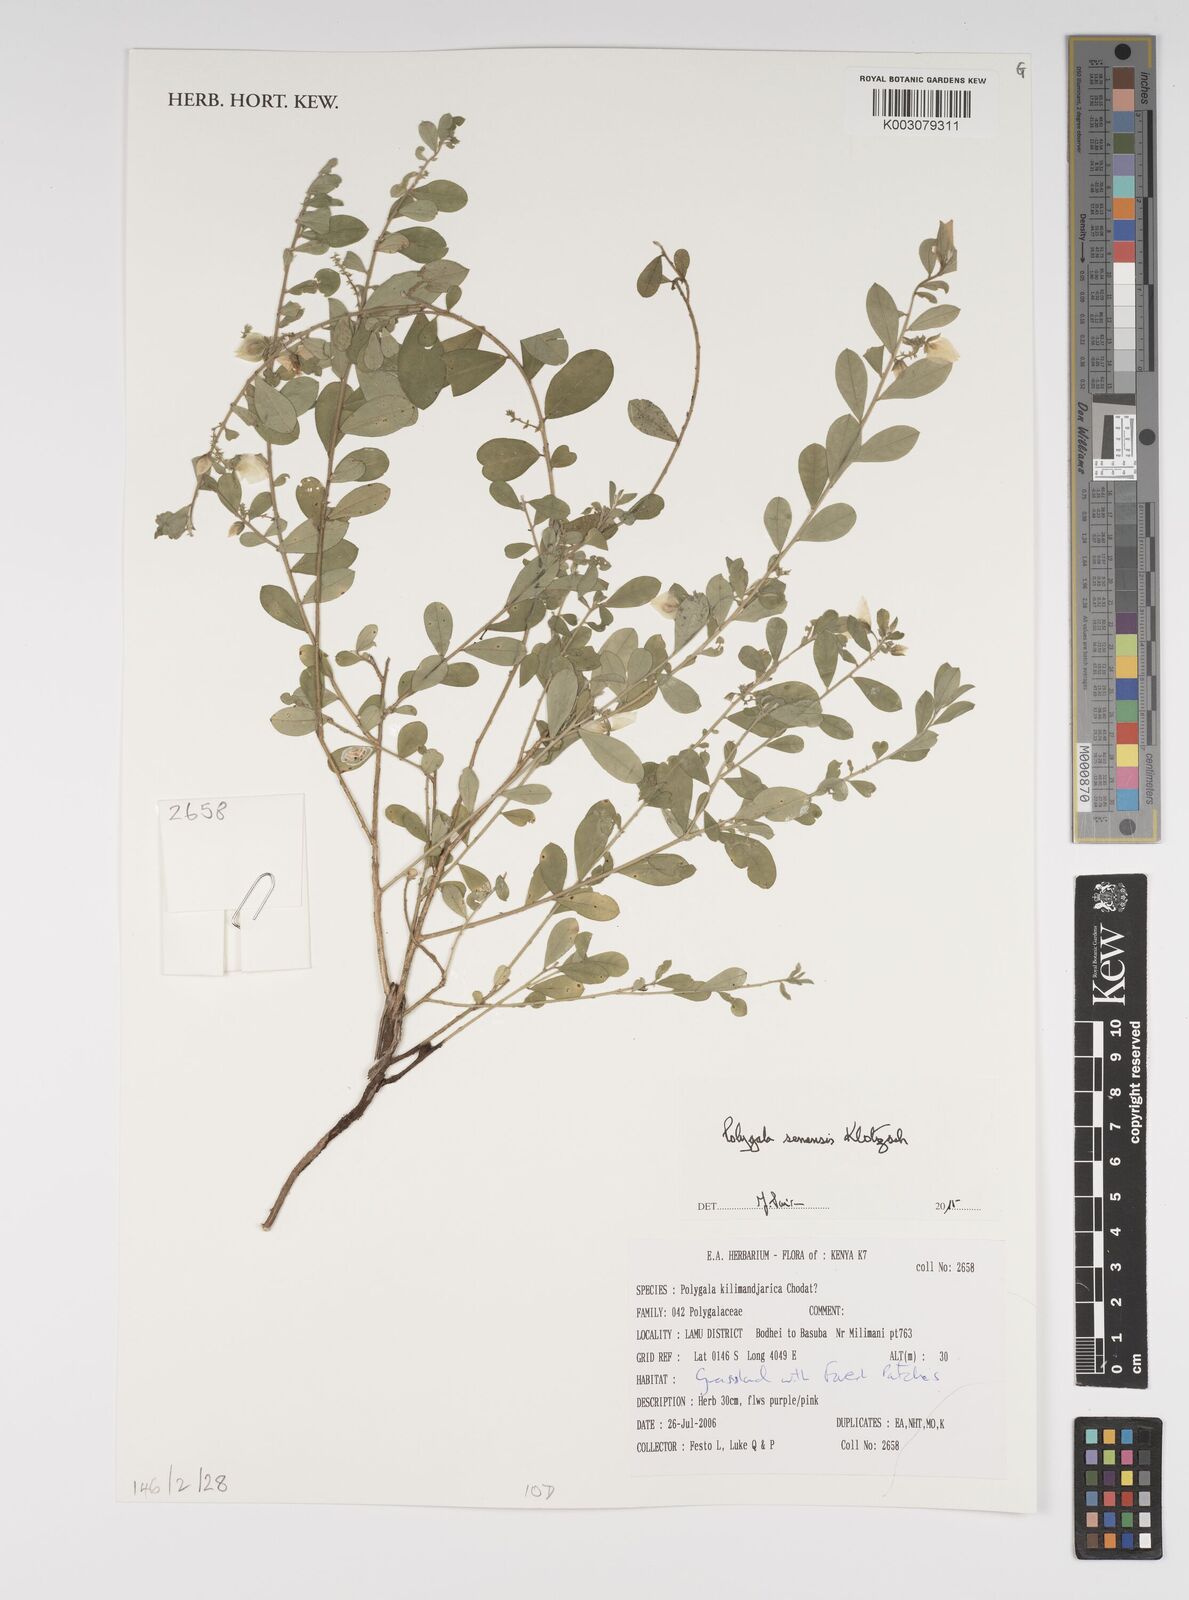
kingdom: Plantae
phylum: Tracheophyta
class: Magnoliopsida
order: Fabales
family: Polygalaceae
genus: Polygala
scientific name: Polygala senensis
